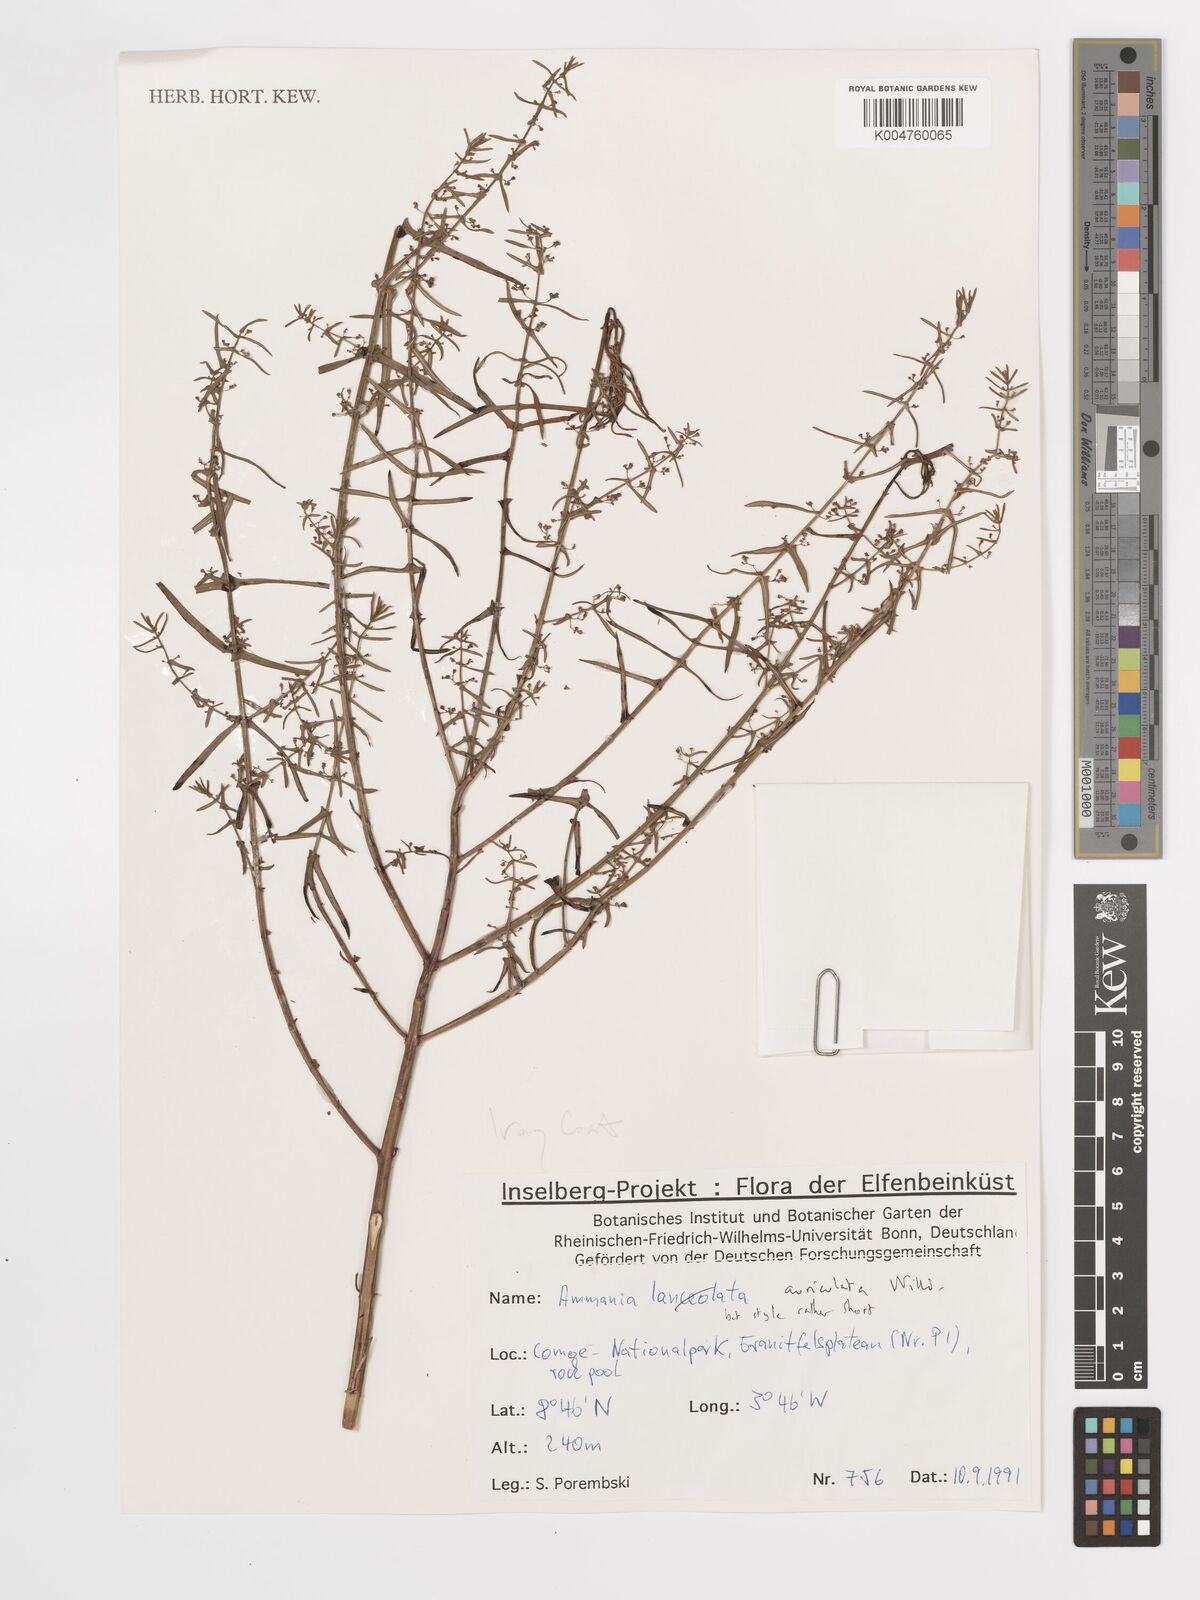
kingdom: Plantae
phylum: Tracheophyta
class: Magnoliopsida
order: Myrtales
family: Lythraceae
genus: Ammannia
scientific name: Ammannia auriculata
